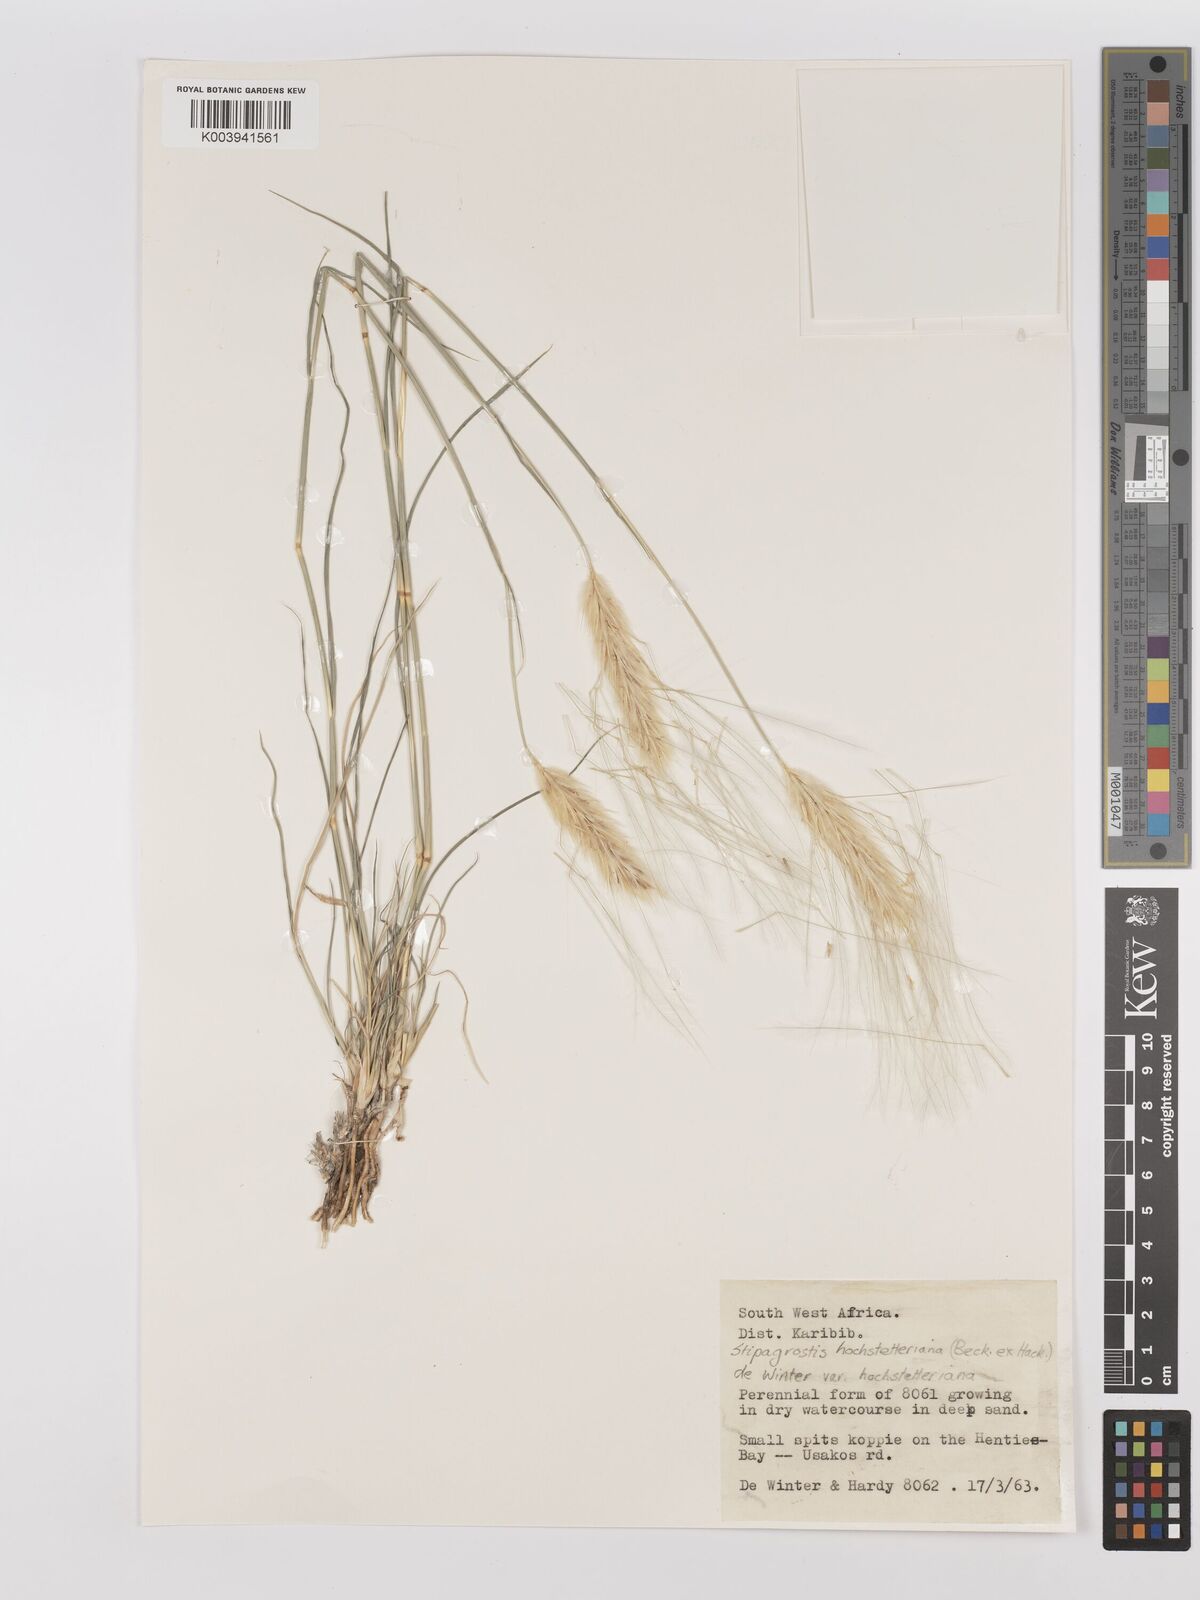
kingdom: Plantae
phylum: Tracheophyta
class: Liliopsida
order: Poales
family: Poaceae
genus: Stipagrostis
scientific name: Stipagrostis hochstetteriana
